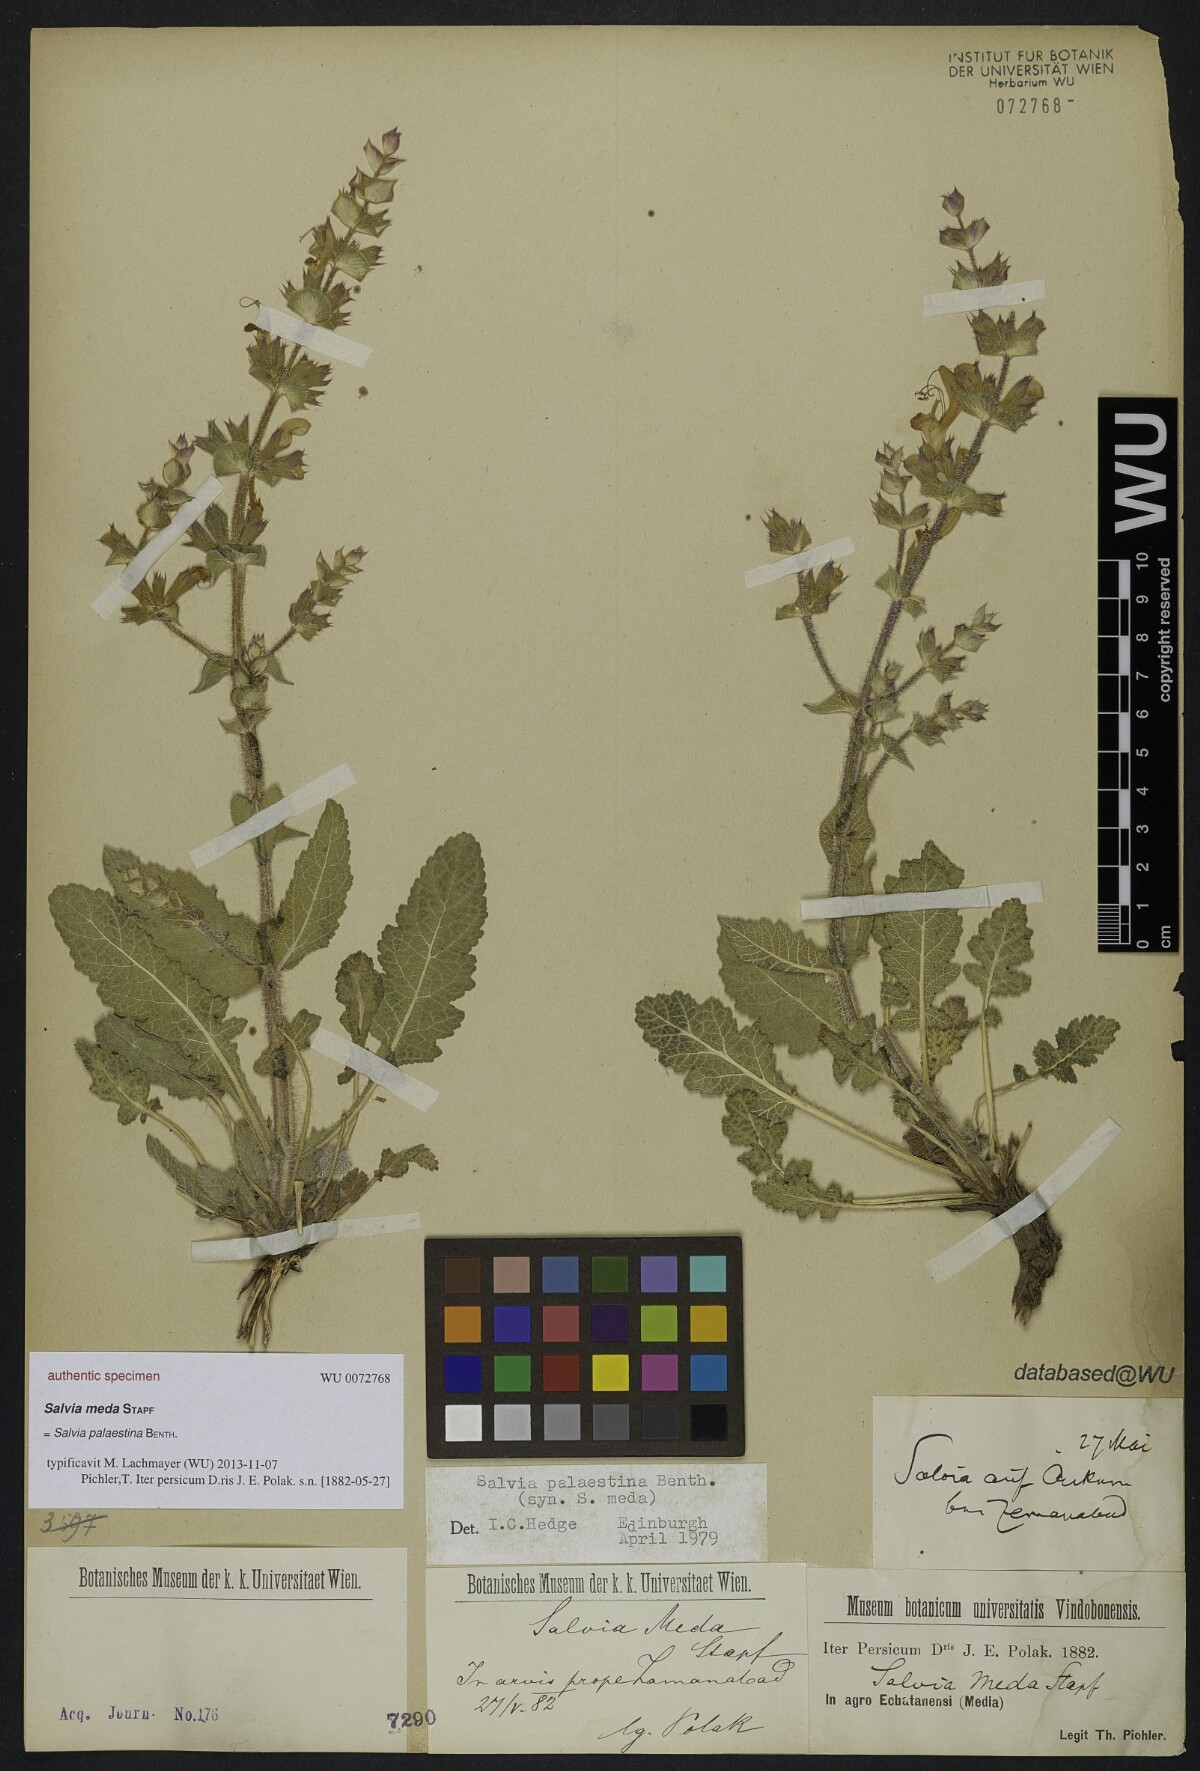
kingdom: Plantae
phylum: Tracheophyta
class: Magnoliopsida
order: Lamiales
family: Lamiaceae
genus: Salvia
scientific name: Salvia meera
